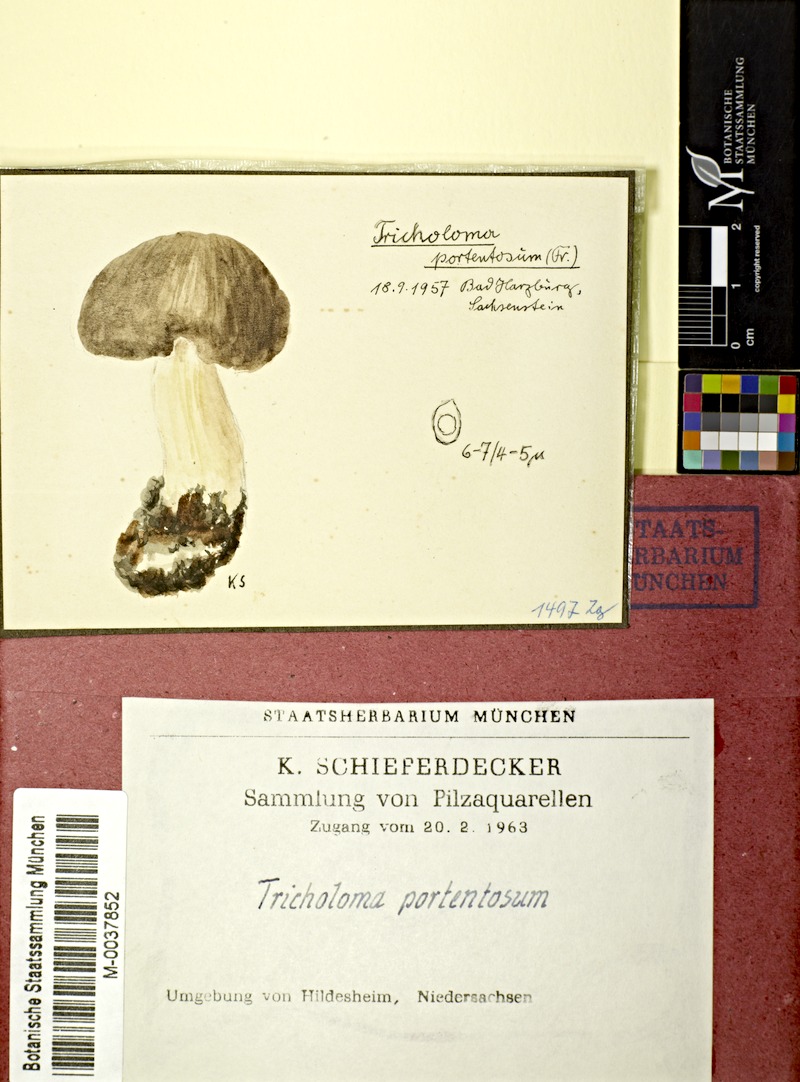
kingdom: Fungi
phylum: Basidiomycota
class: Agaricomycetes
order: Agaricales
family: Tricholomataceae
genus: Tricholoma
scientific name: Tricholoma portentosum
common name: Coalman
